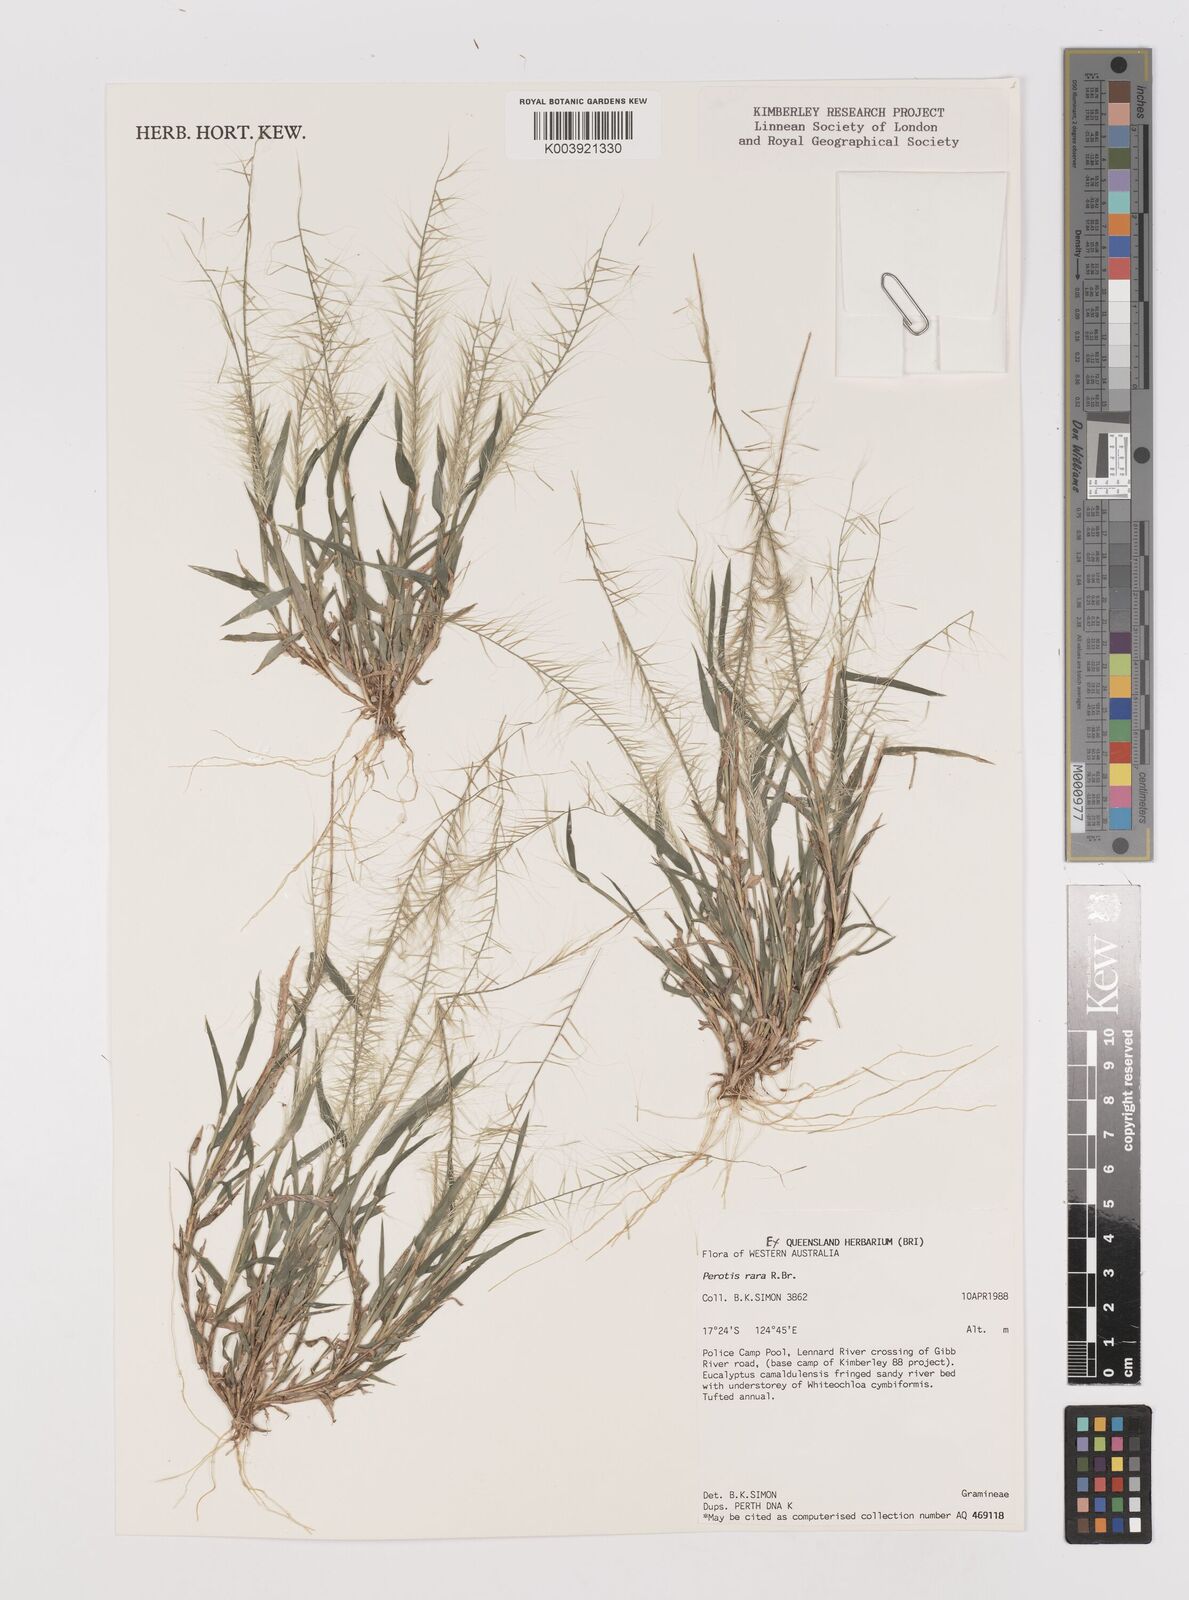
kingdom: Plantae
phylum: Tracheophyta
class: Liliopsida
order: Poales
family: Poaceae
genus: Perotis
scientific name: Perotis rara
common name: Comet grass
